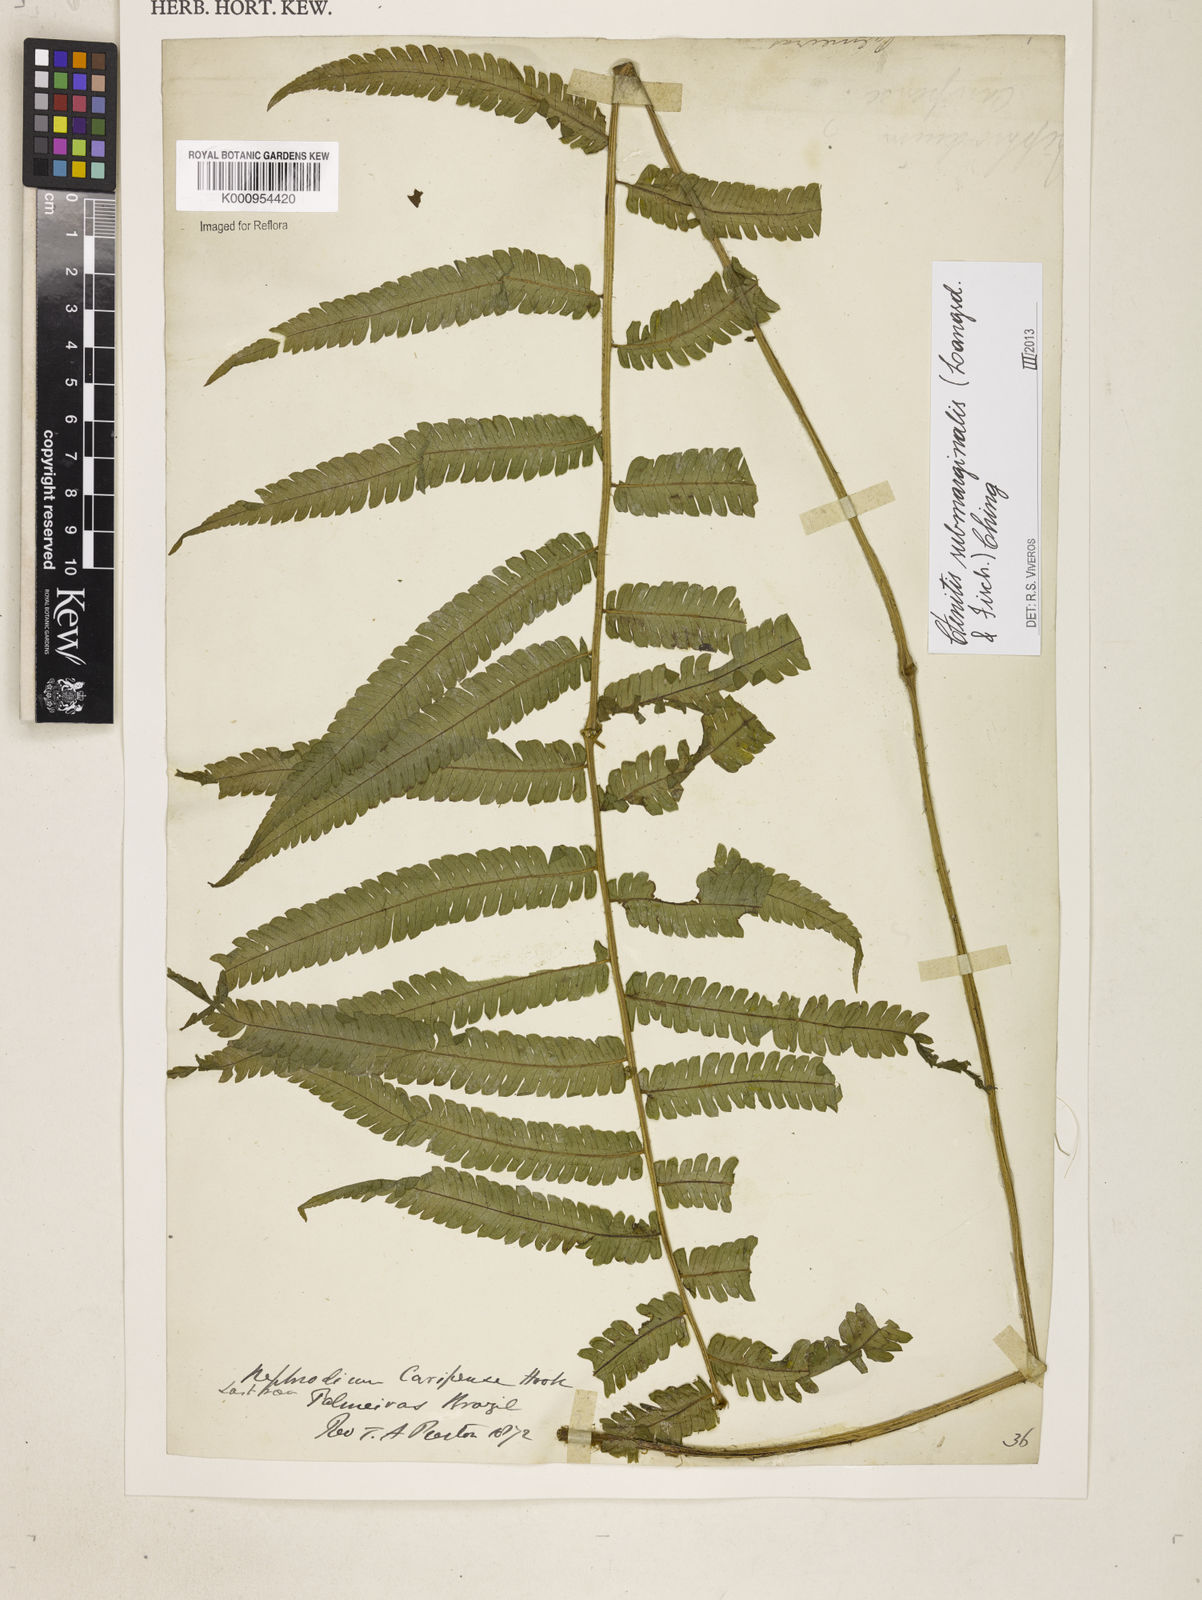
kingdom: Plantae
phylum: Tracheophyta
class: Polypodiopsida
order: Polypodiales
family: Dryopteridaceae
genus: Ctenitis
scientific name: Ctenitis submarginalis
